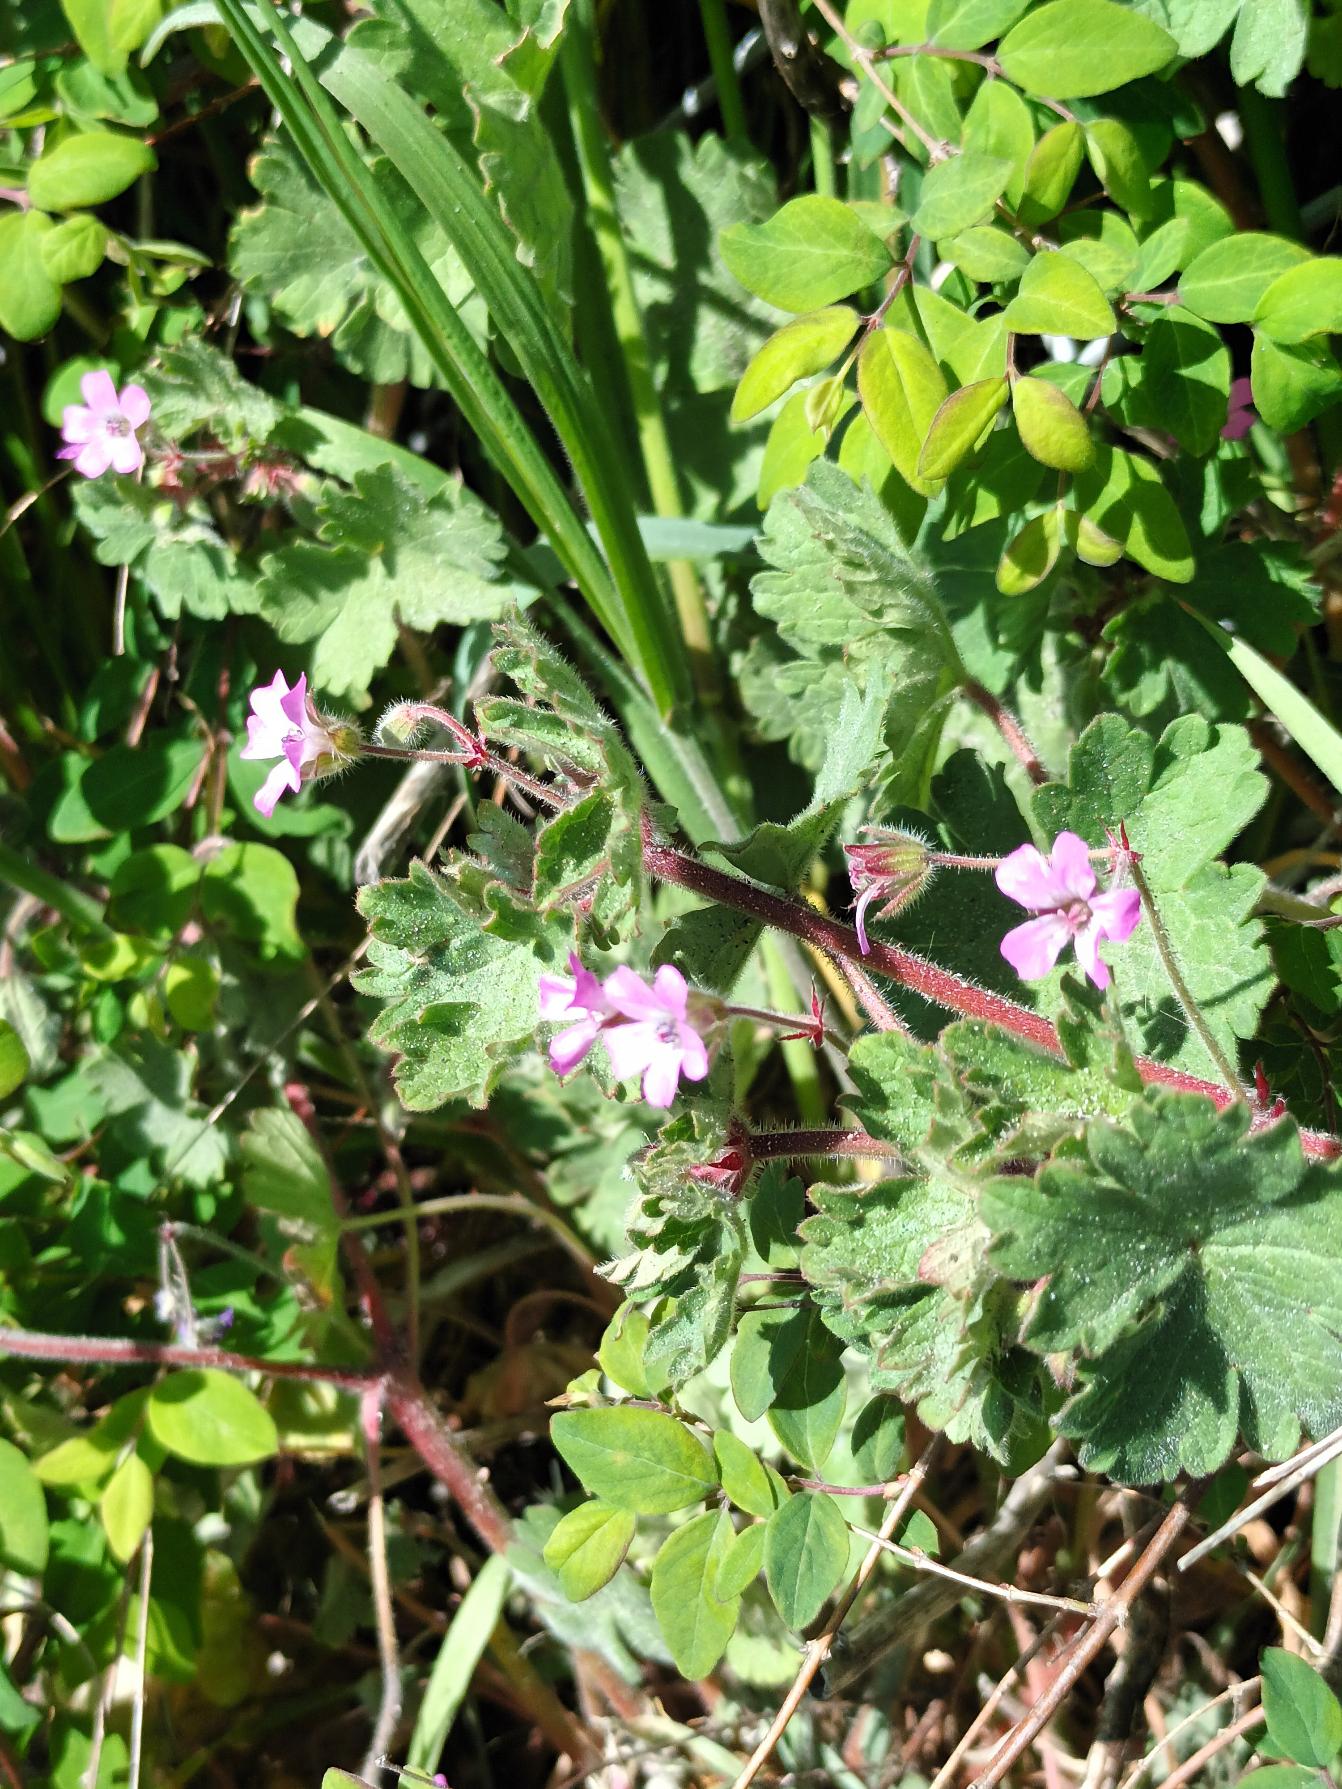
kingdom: Plantae
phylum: Tracheophyta
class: Magnoliopsida
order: Geraniales
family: Geraniaceae
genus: Geranium
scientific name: Geranium rotundifolium
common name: Rundbladet storkenæb
